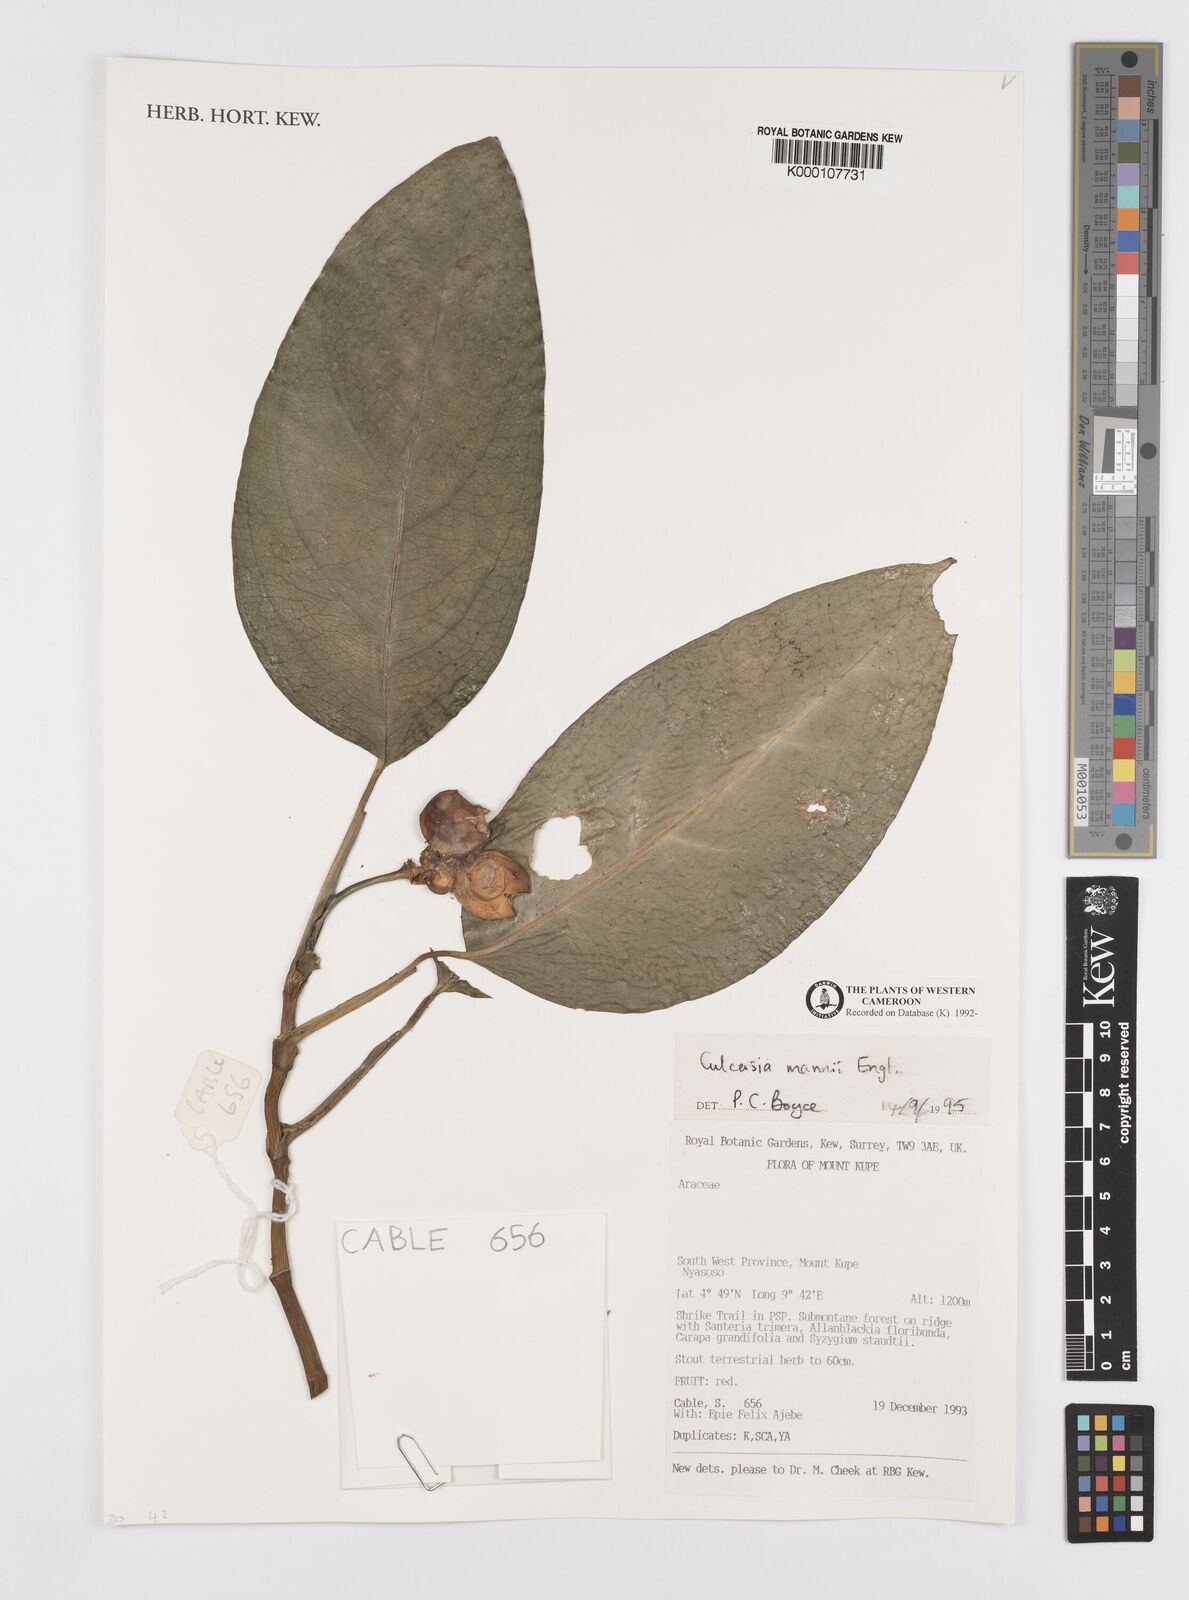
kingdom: Plantae
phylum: Tracheophyta
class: Liliopsida
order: Alismatales
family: Araceae
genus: Culcasia
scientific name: Culcasia mannii
